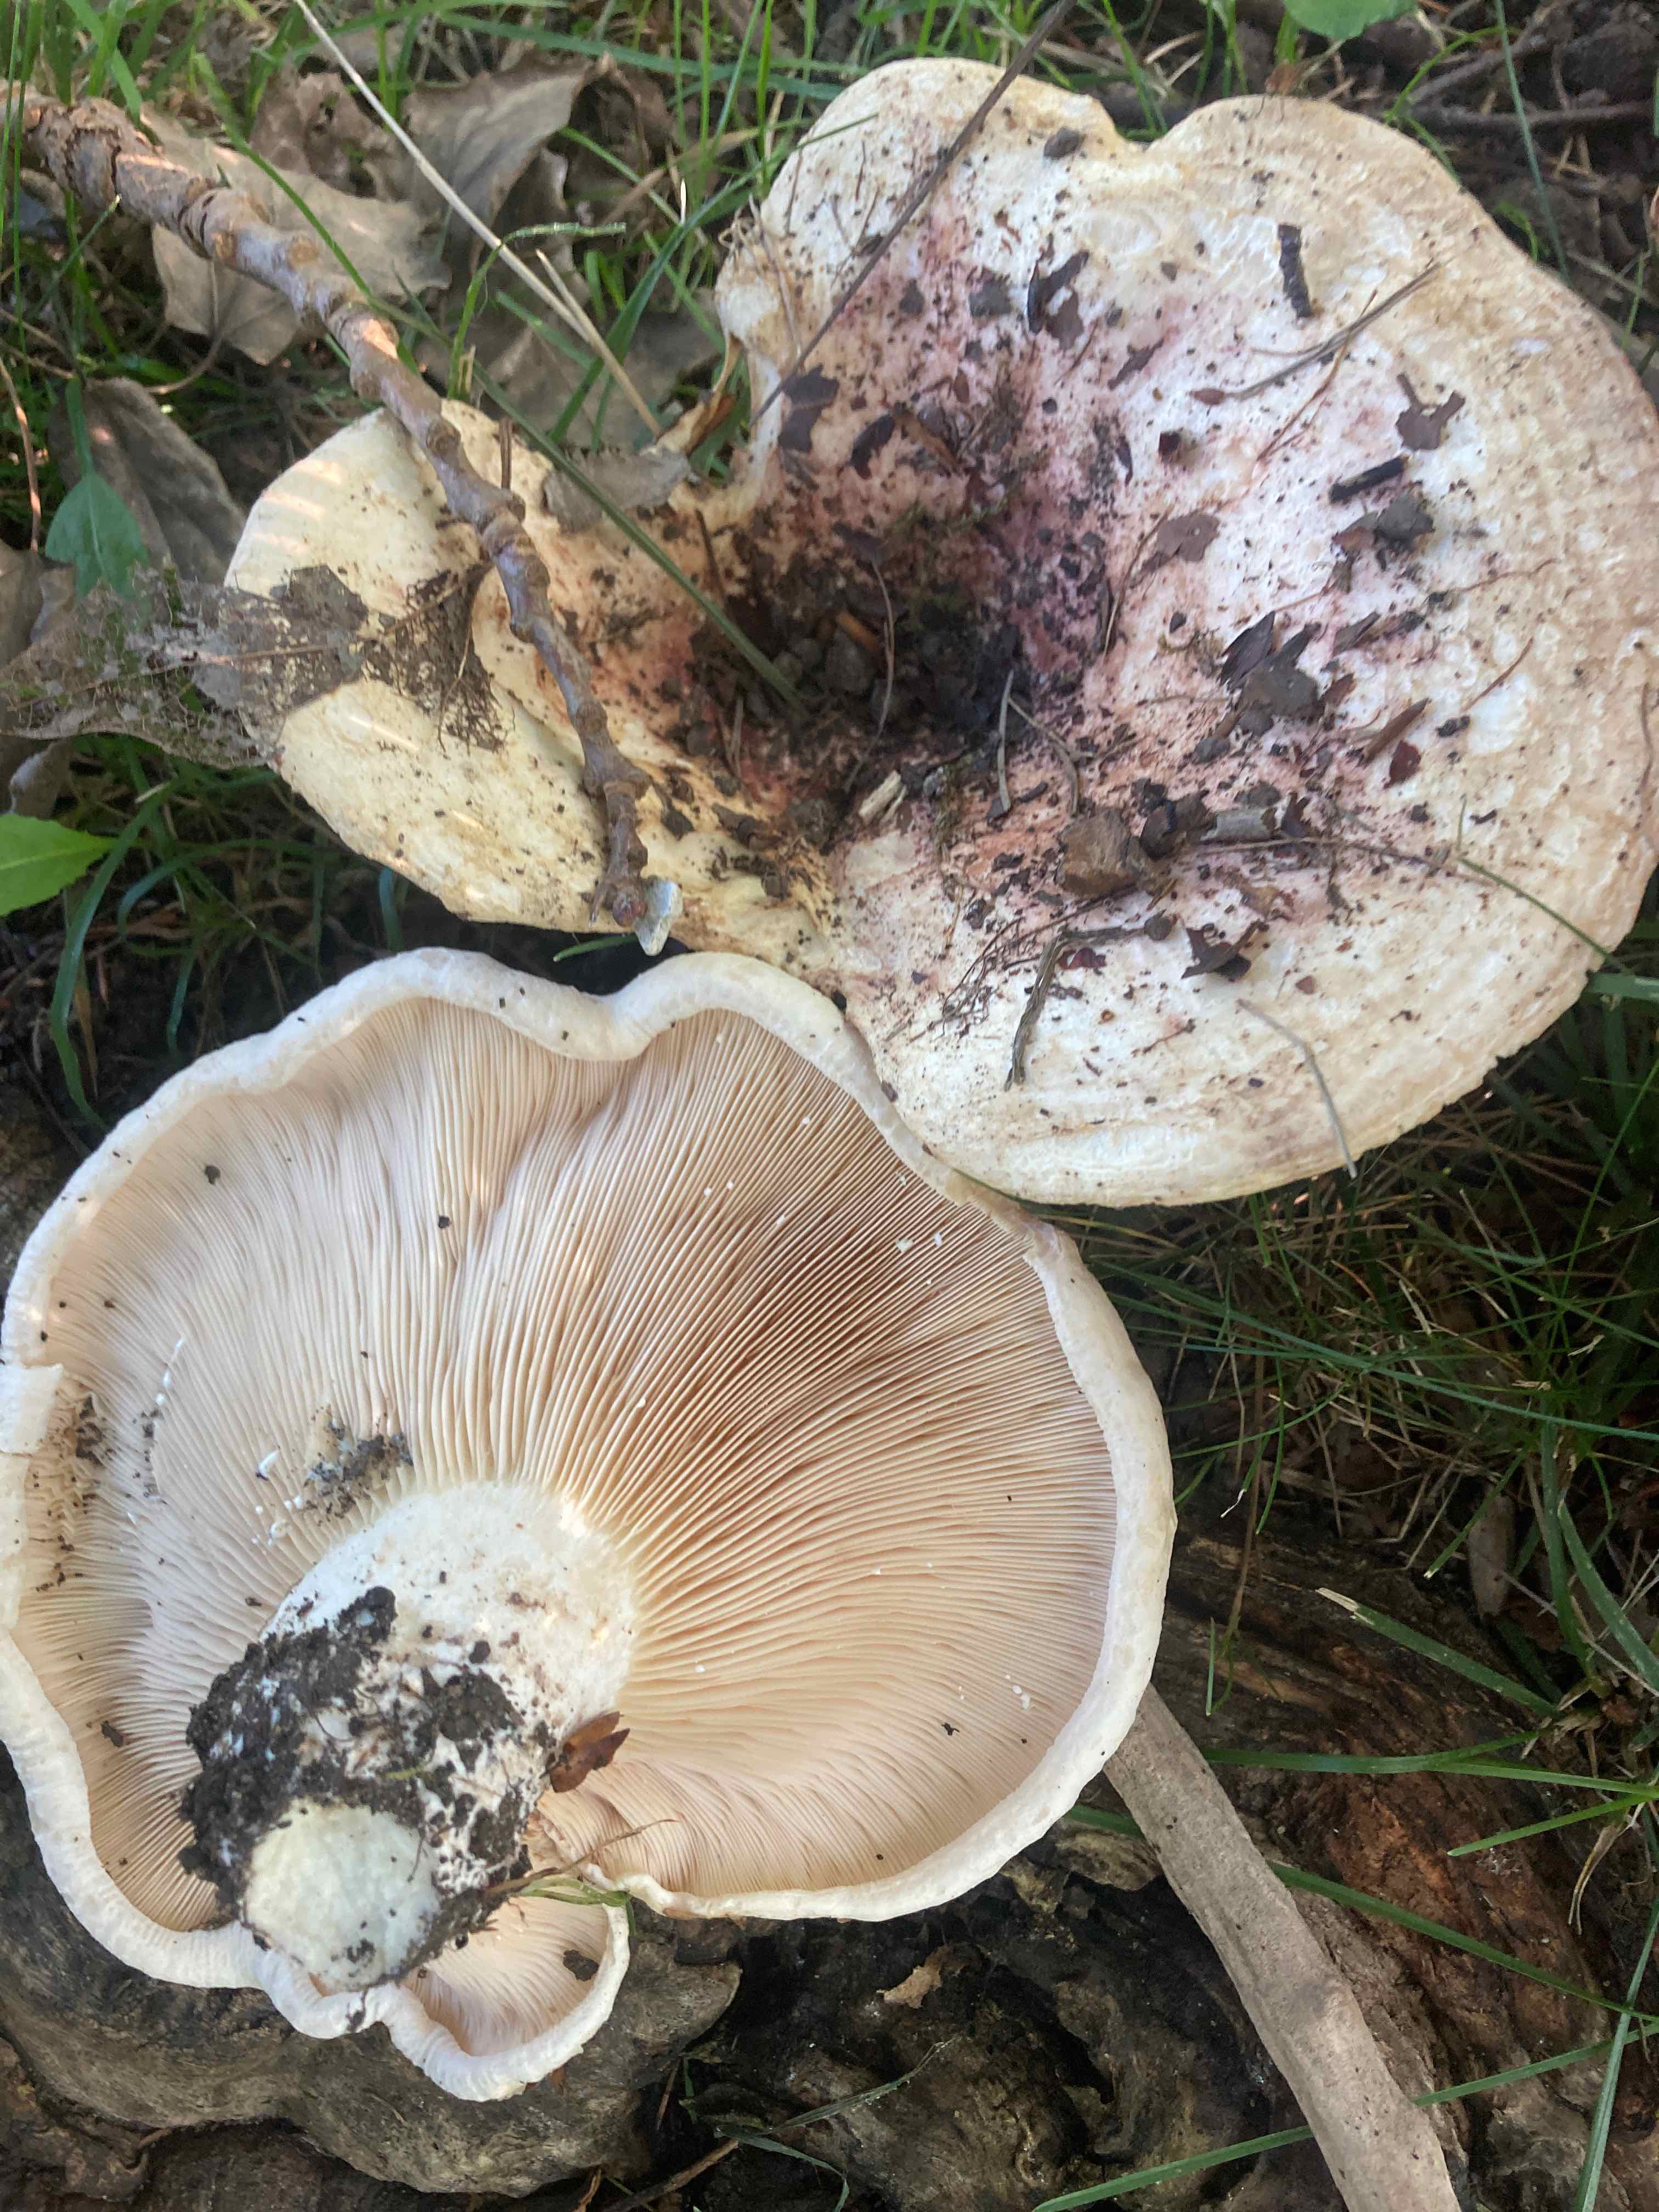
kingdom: Fungi
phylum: Basidiomycota
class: Agaricomycetes
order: Russulales
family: Russulaceae
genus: Lactarius
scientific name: Lactarius controversus
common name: rosabladet mælkehat
